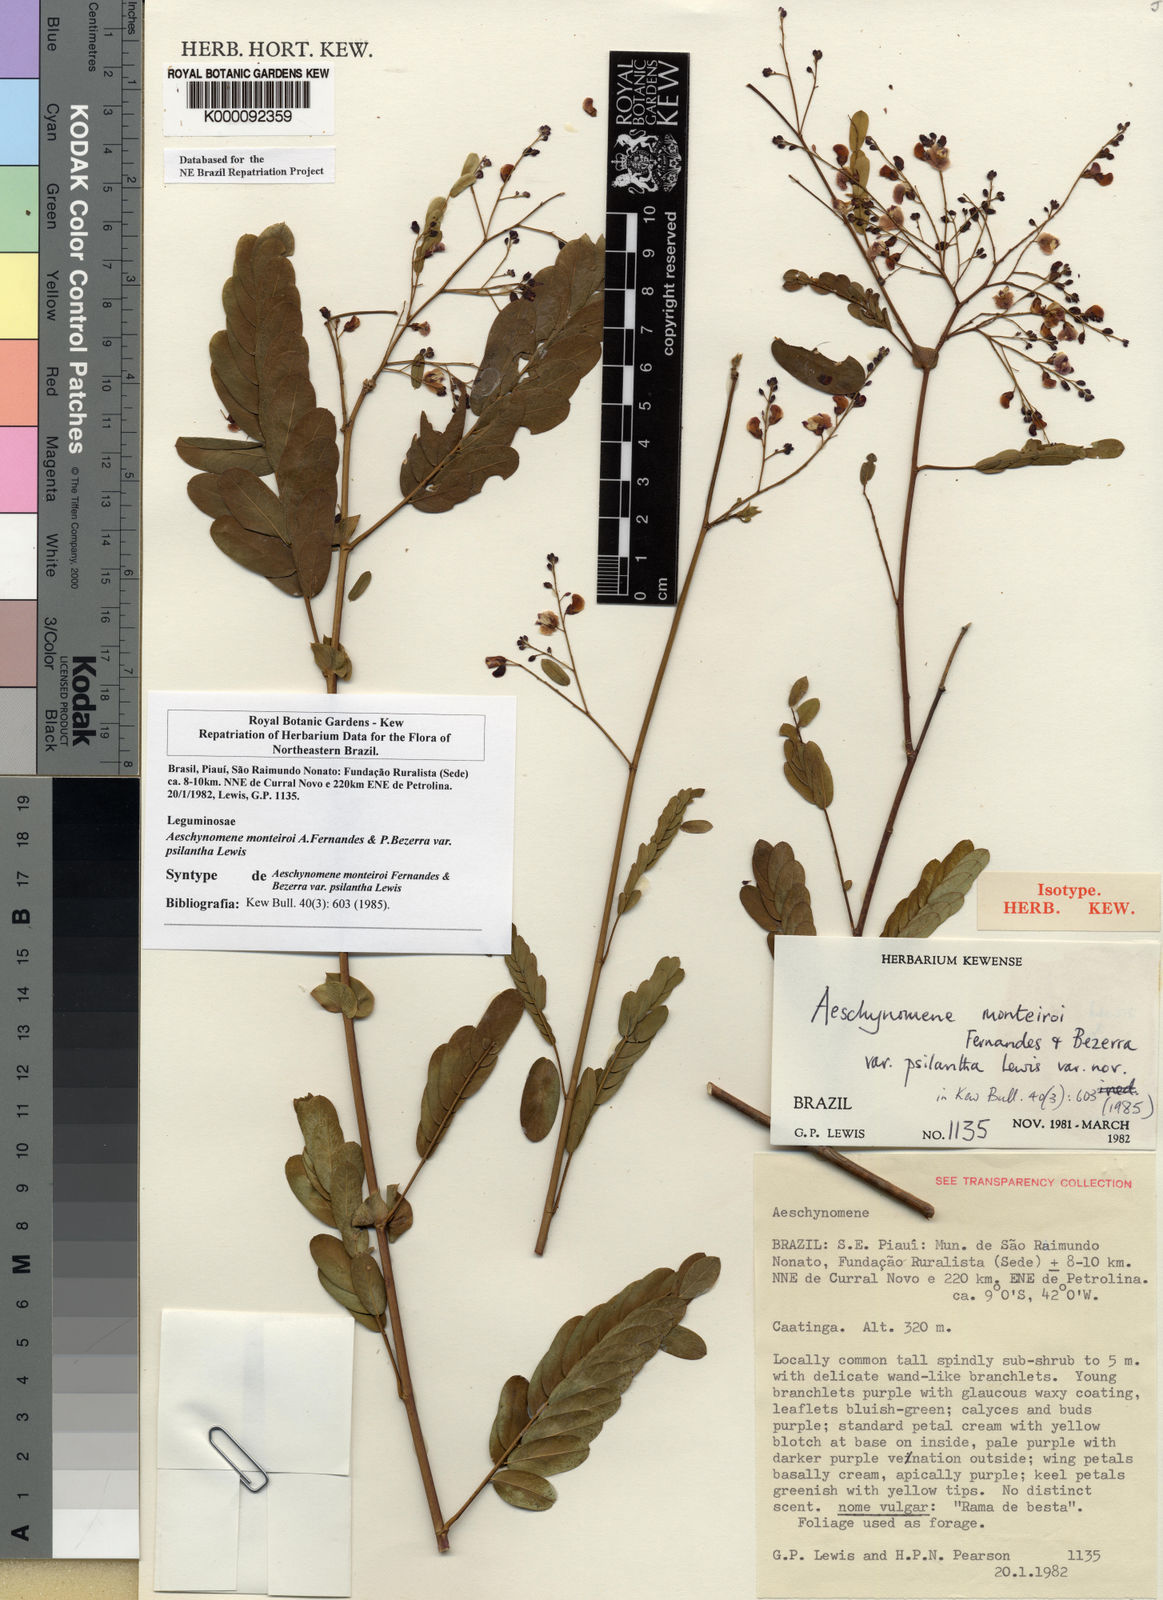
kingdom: Plantae
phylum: Tracheophyta
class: Magnoliopsida
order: Fabales
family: Fabaceae
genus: Ctenodon
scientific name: Ctenodon monteiroi
